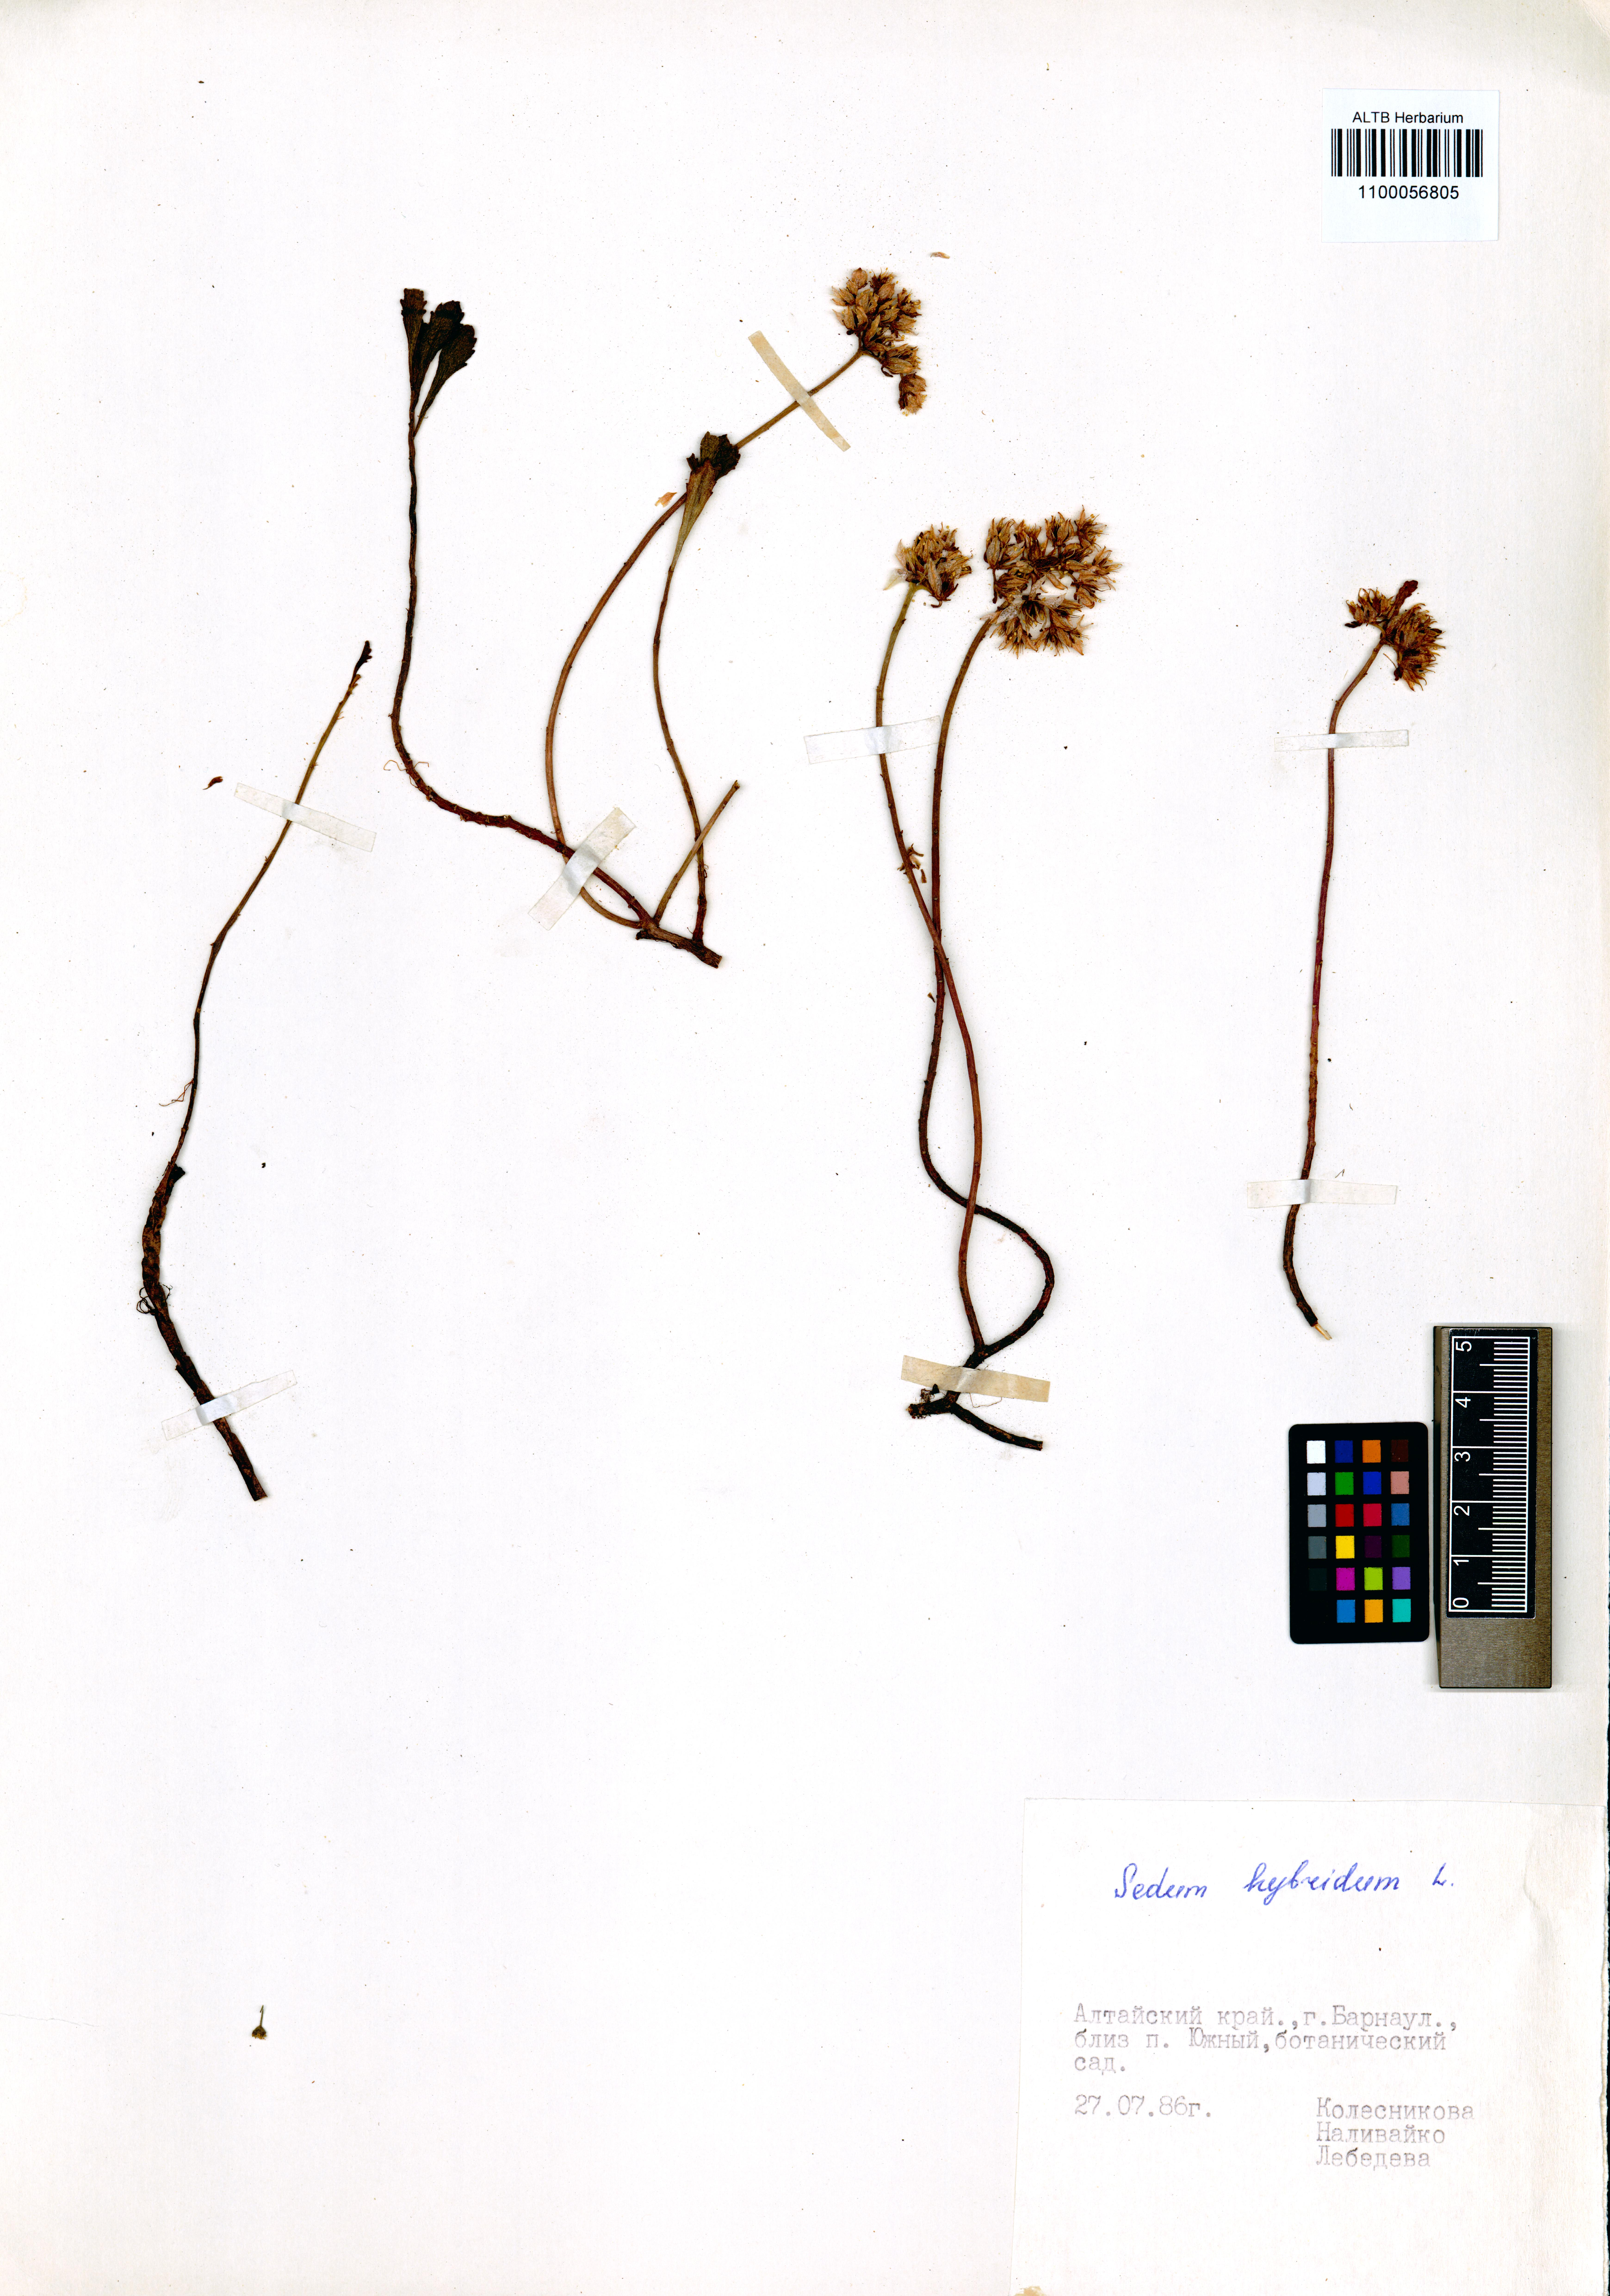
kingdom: Plantae
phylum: Tracheophyta
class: Magnoliopsida
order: Saxifragales
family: Crassulaceae
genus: Phedimus
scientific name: Phedimus hybridus
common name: Hybrid stonecrop
